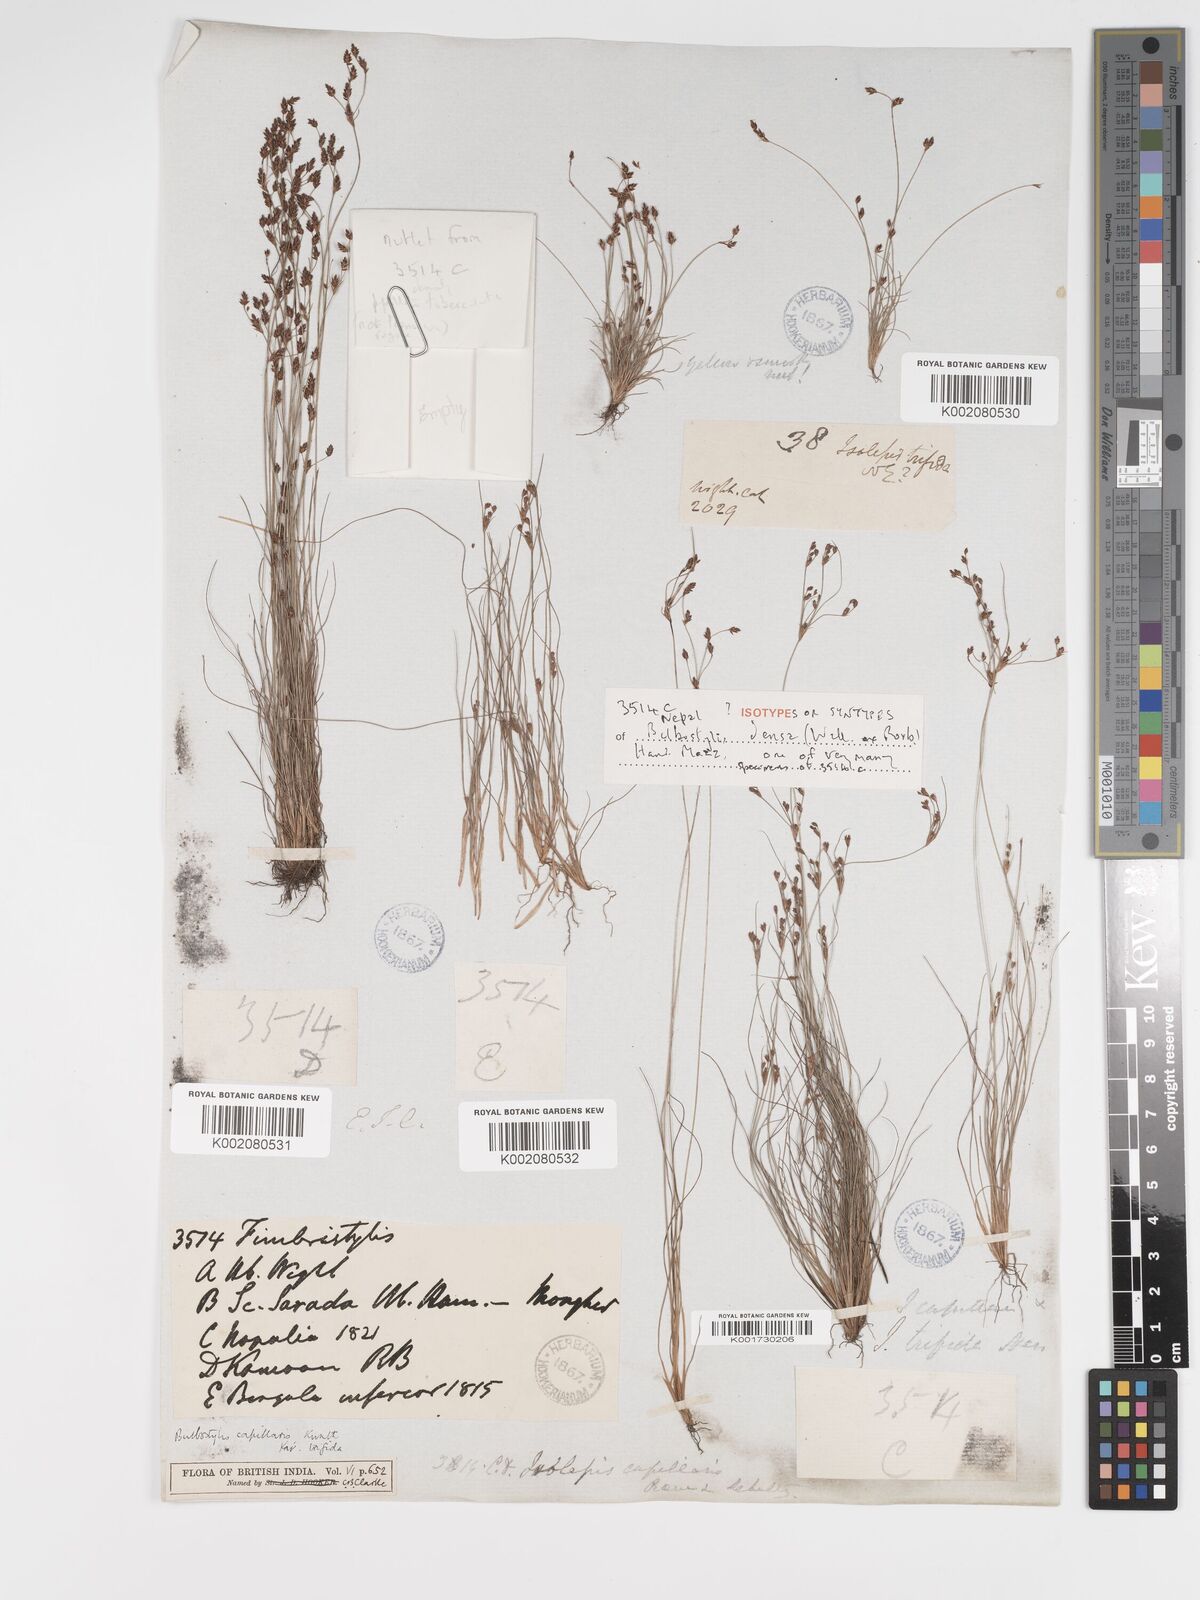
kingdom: Plantae
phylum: Tracheophyta
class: Liliopsida
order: Poales
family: Cyperaceae
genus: Bulbostylis
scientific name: Bulbostylis densa
